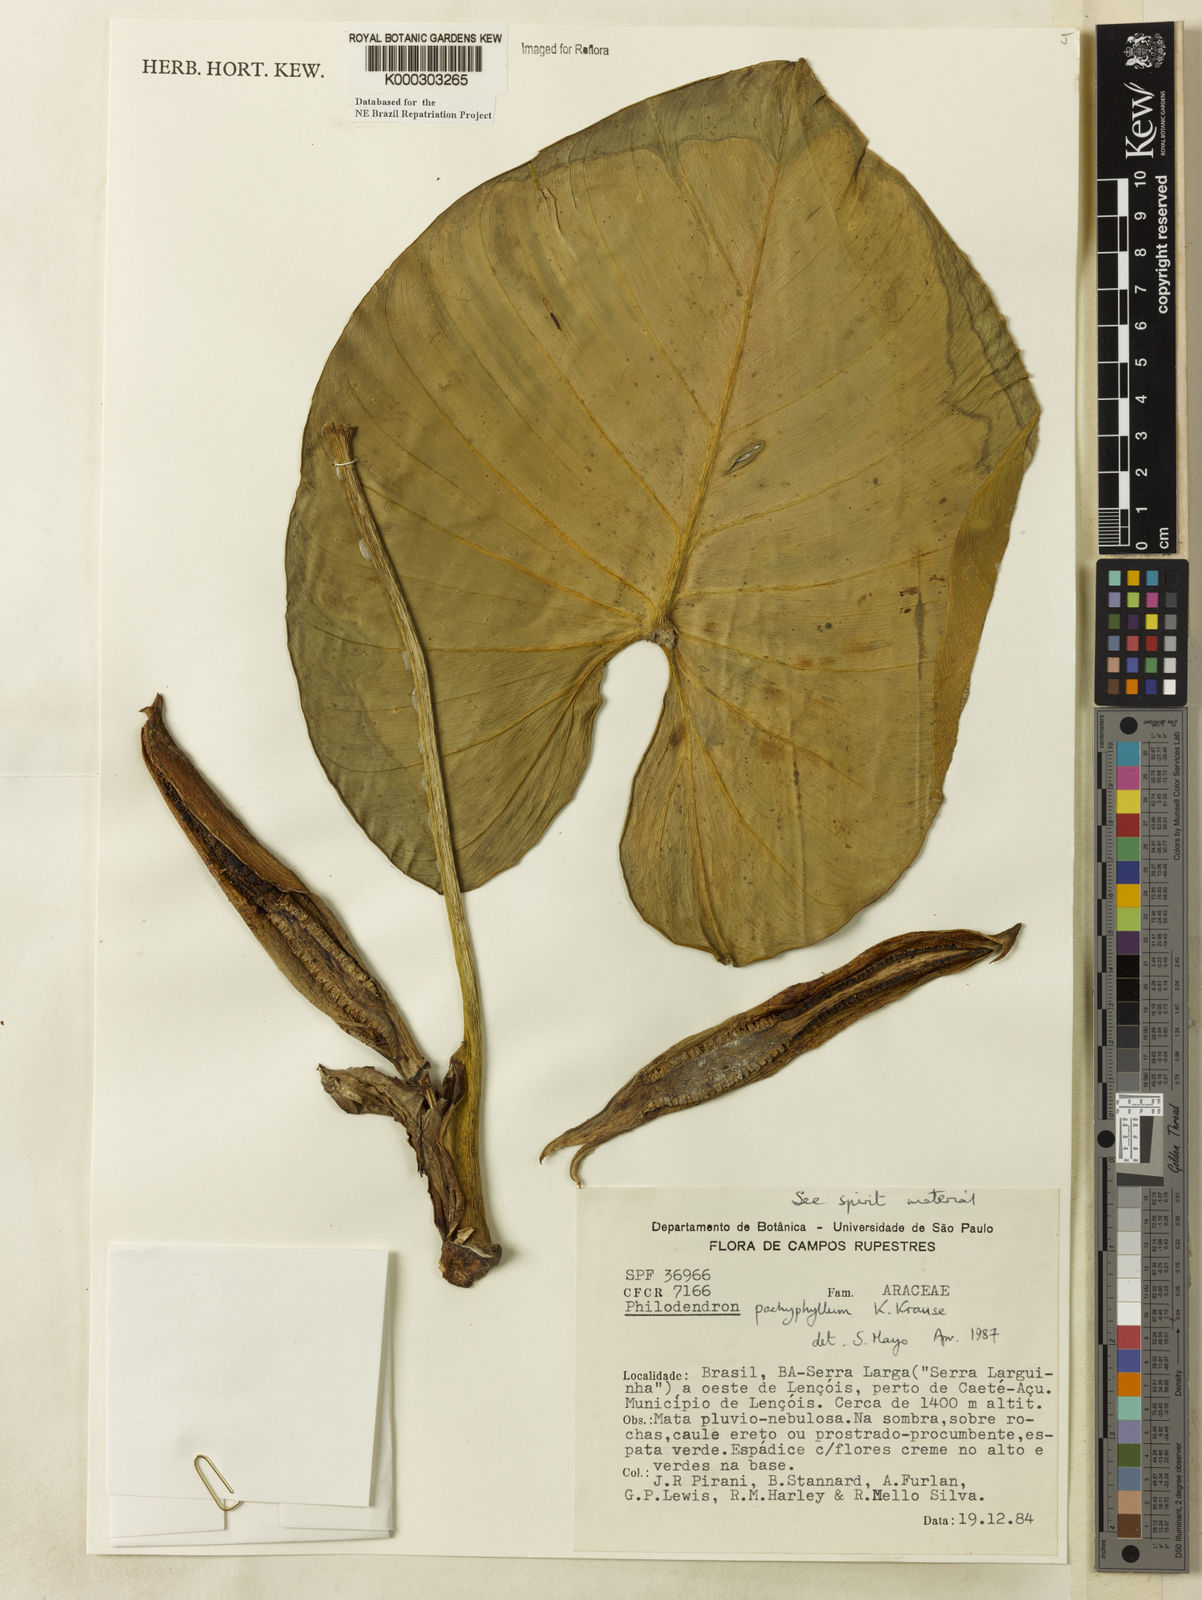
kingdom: Plantae
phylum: Tracheophyta
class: Liliopsida
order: Alismatales
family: Araceae
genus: Philodendron
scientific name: Philodendron pachyphyllum
